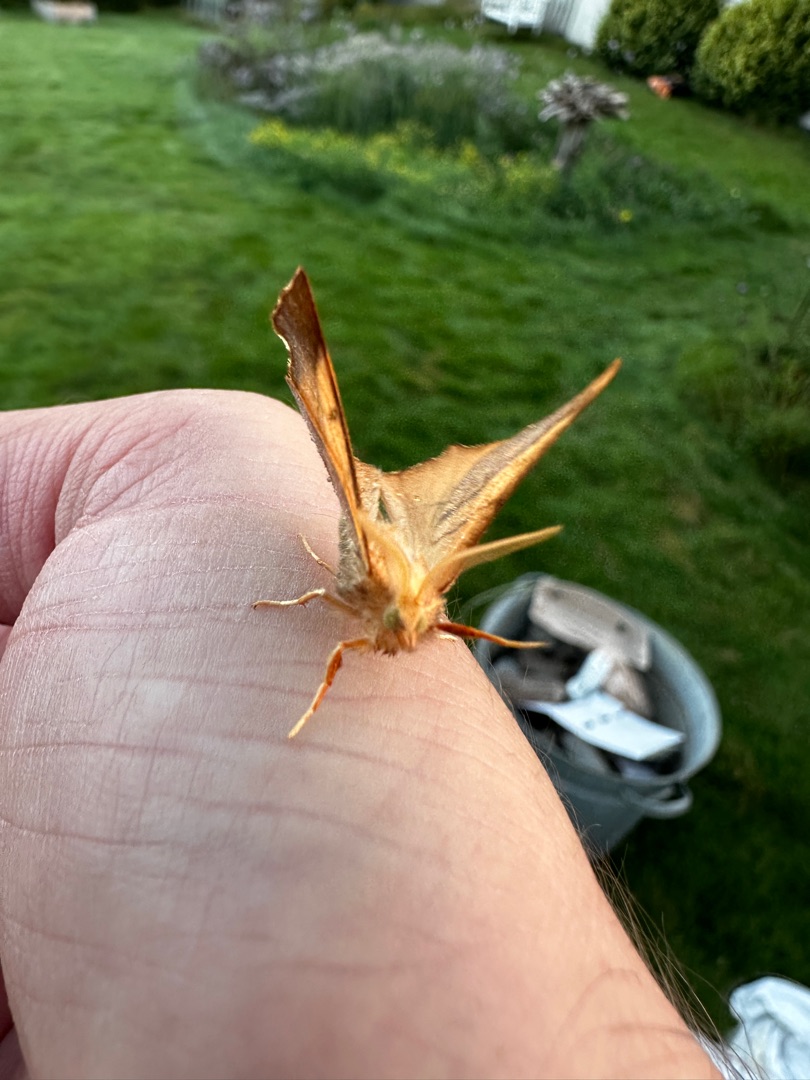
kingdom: Animalia
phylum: Arthropoda
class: Insecta
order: Lepidoptera
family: Geometridae
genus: Ennomos
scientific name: Ennomos fuscantaria
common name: Asketandmåler
